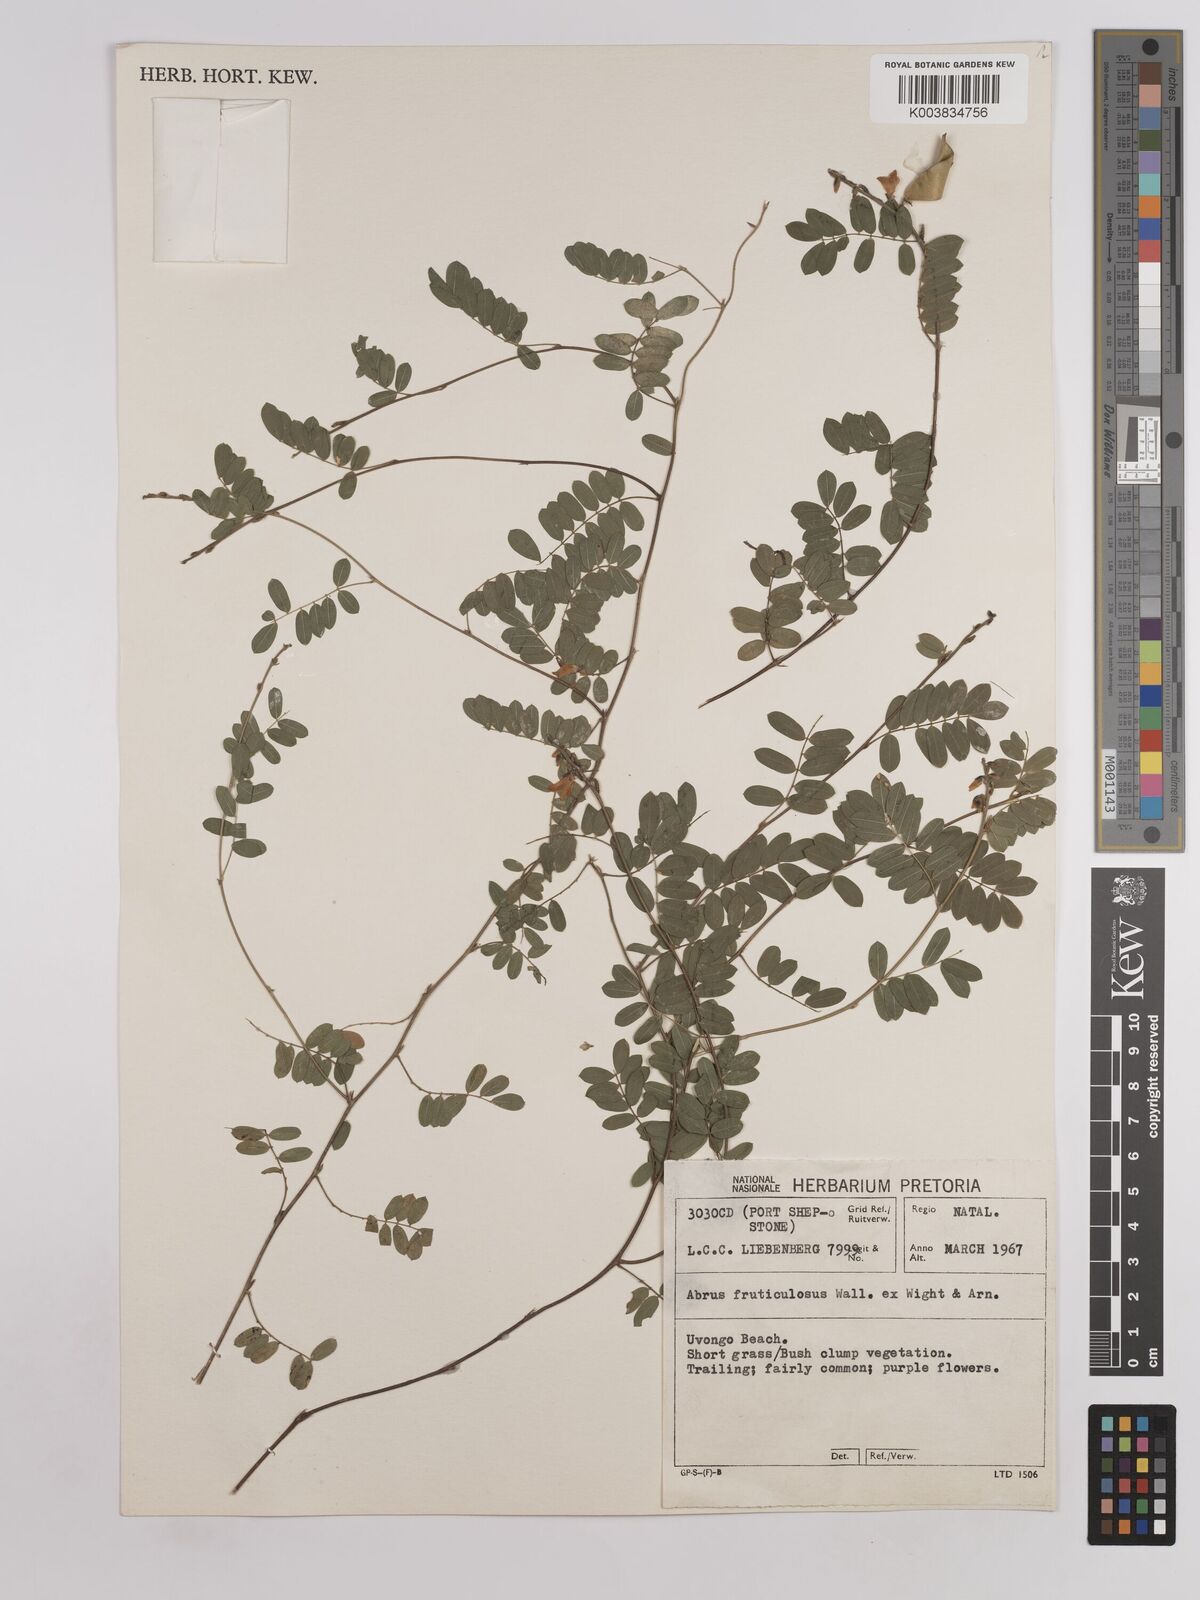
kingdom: Plantae
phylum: Tracheophyta
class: Magnoliopsida
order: Fabales
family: Fabaceae
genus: Abrus
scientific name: Abrus laevigatus
